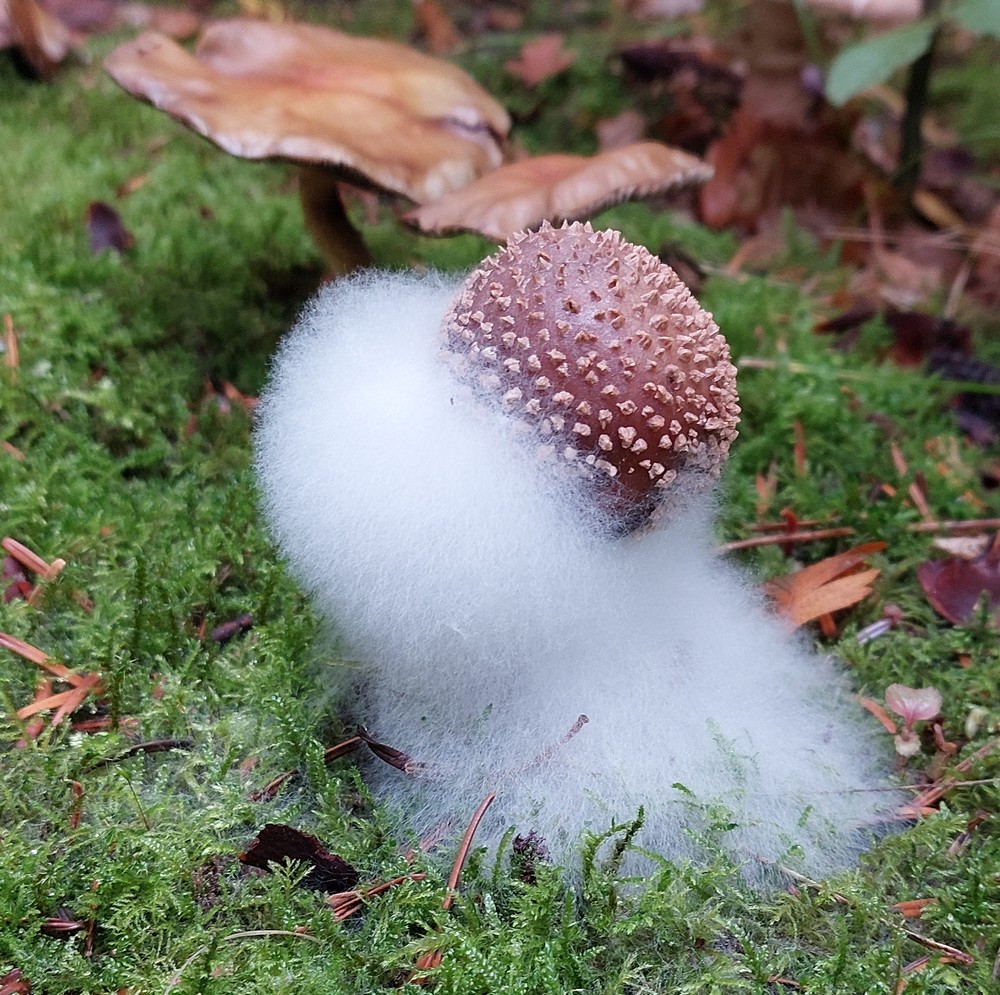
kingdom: Fungi
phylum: Basidiomycota
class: Agaricomycetes
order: Agaricales
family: Amanitaceae
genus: Amanita
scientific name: Amanita rubescens
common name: rødmende fluesvamp
